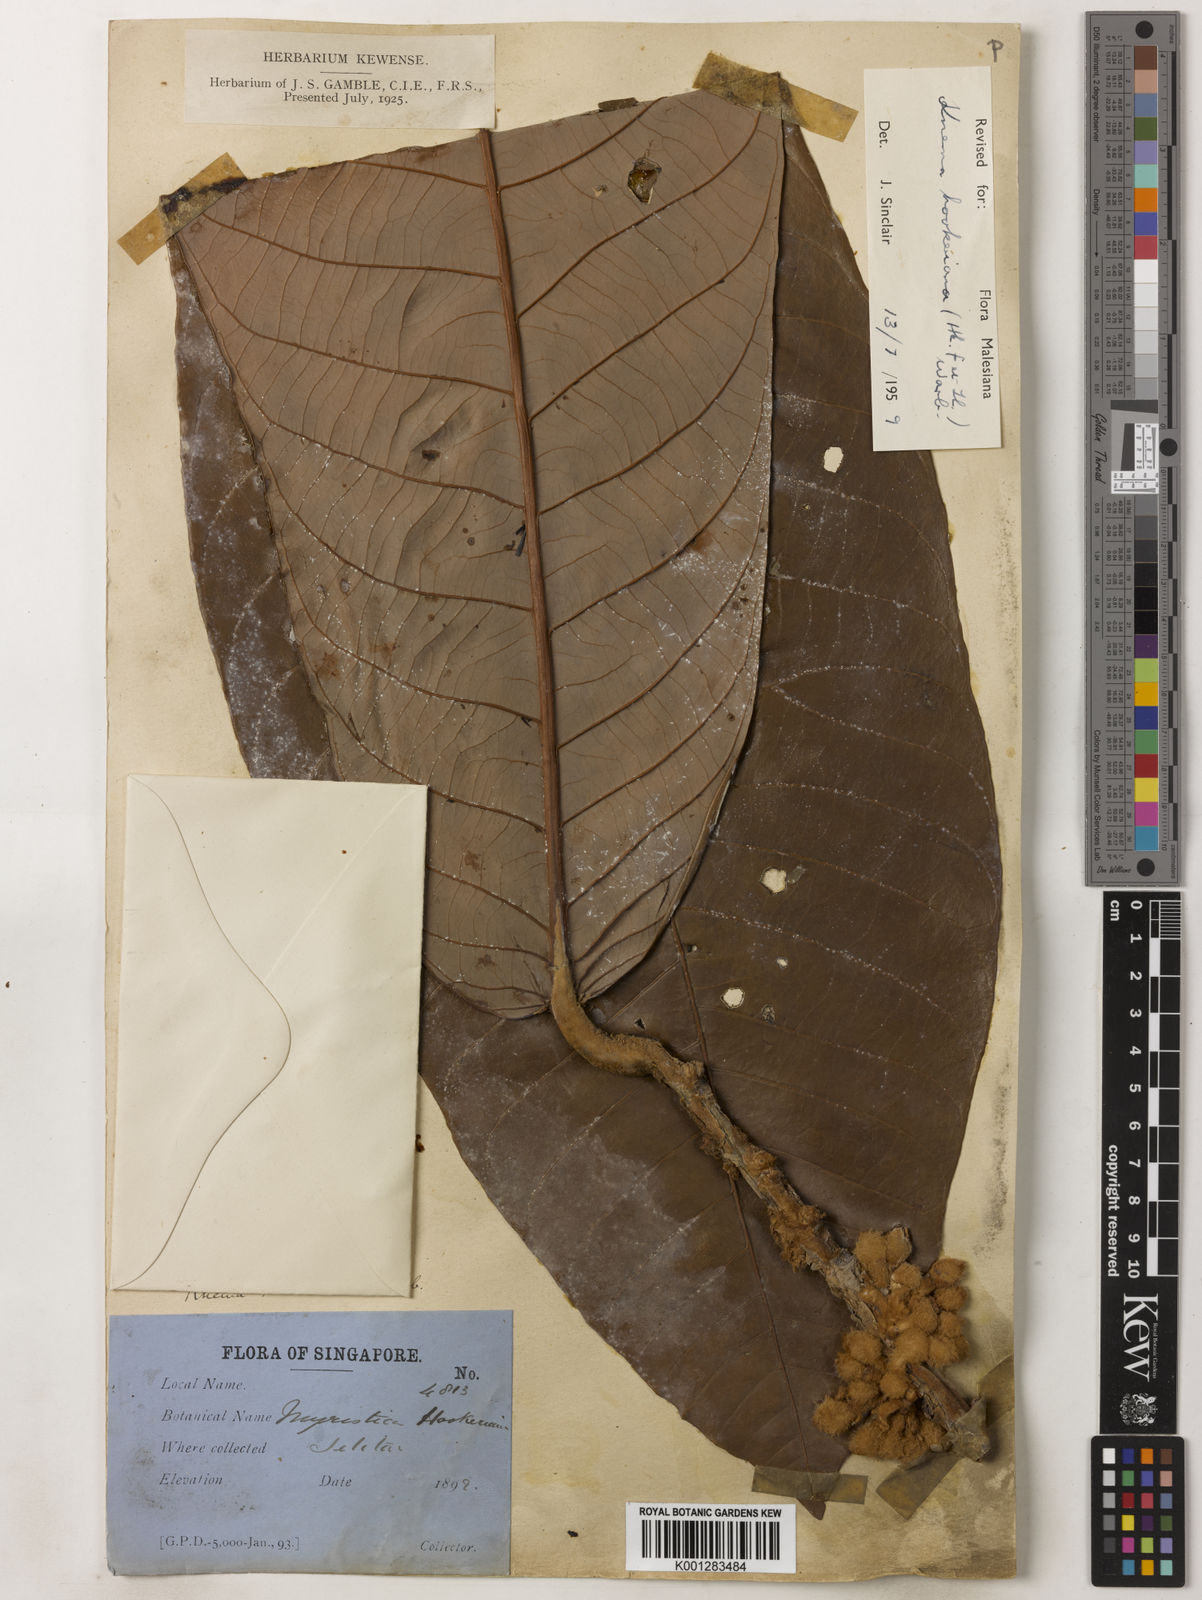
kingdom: Plantae
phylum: Tracheophyta
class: Magnoliopsida
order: Magnoliales
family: Myristicaceae
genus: Knema
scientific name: Knema hookeriana
